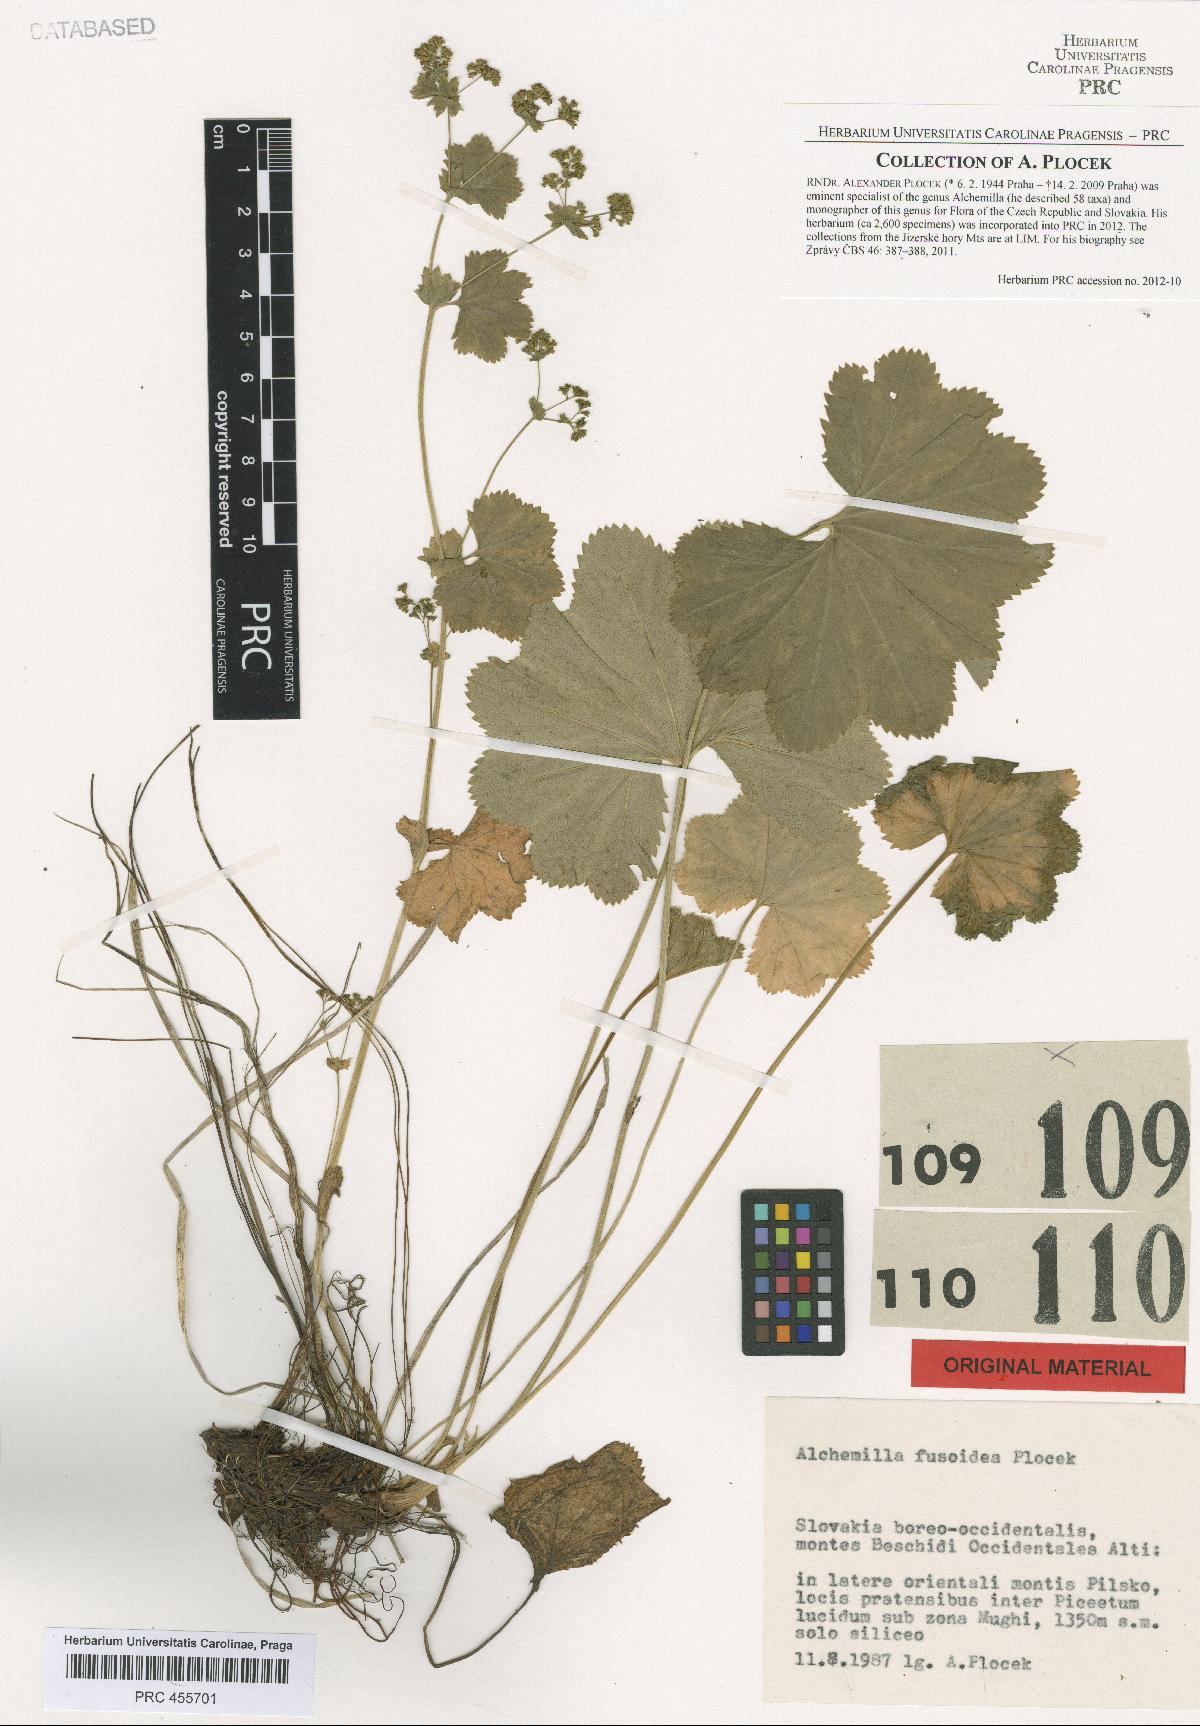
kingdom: Plantae
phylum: Tracheophyta
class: Magnoliopsida
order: Rosales
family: Rosaceae
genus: Alchemilla
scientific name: Alchemilla fusoidea
